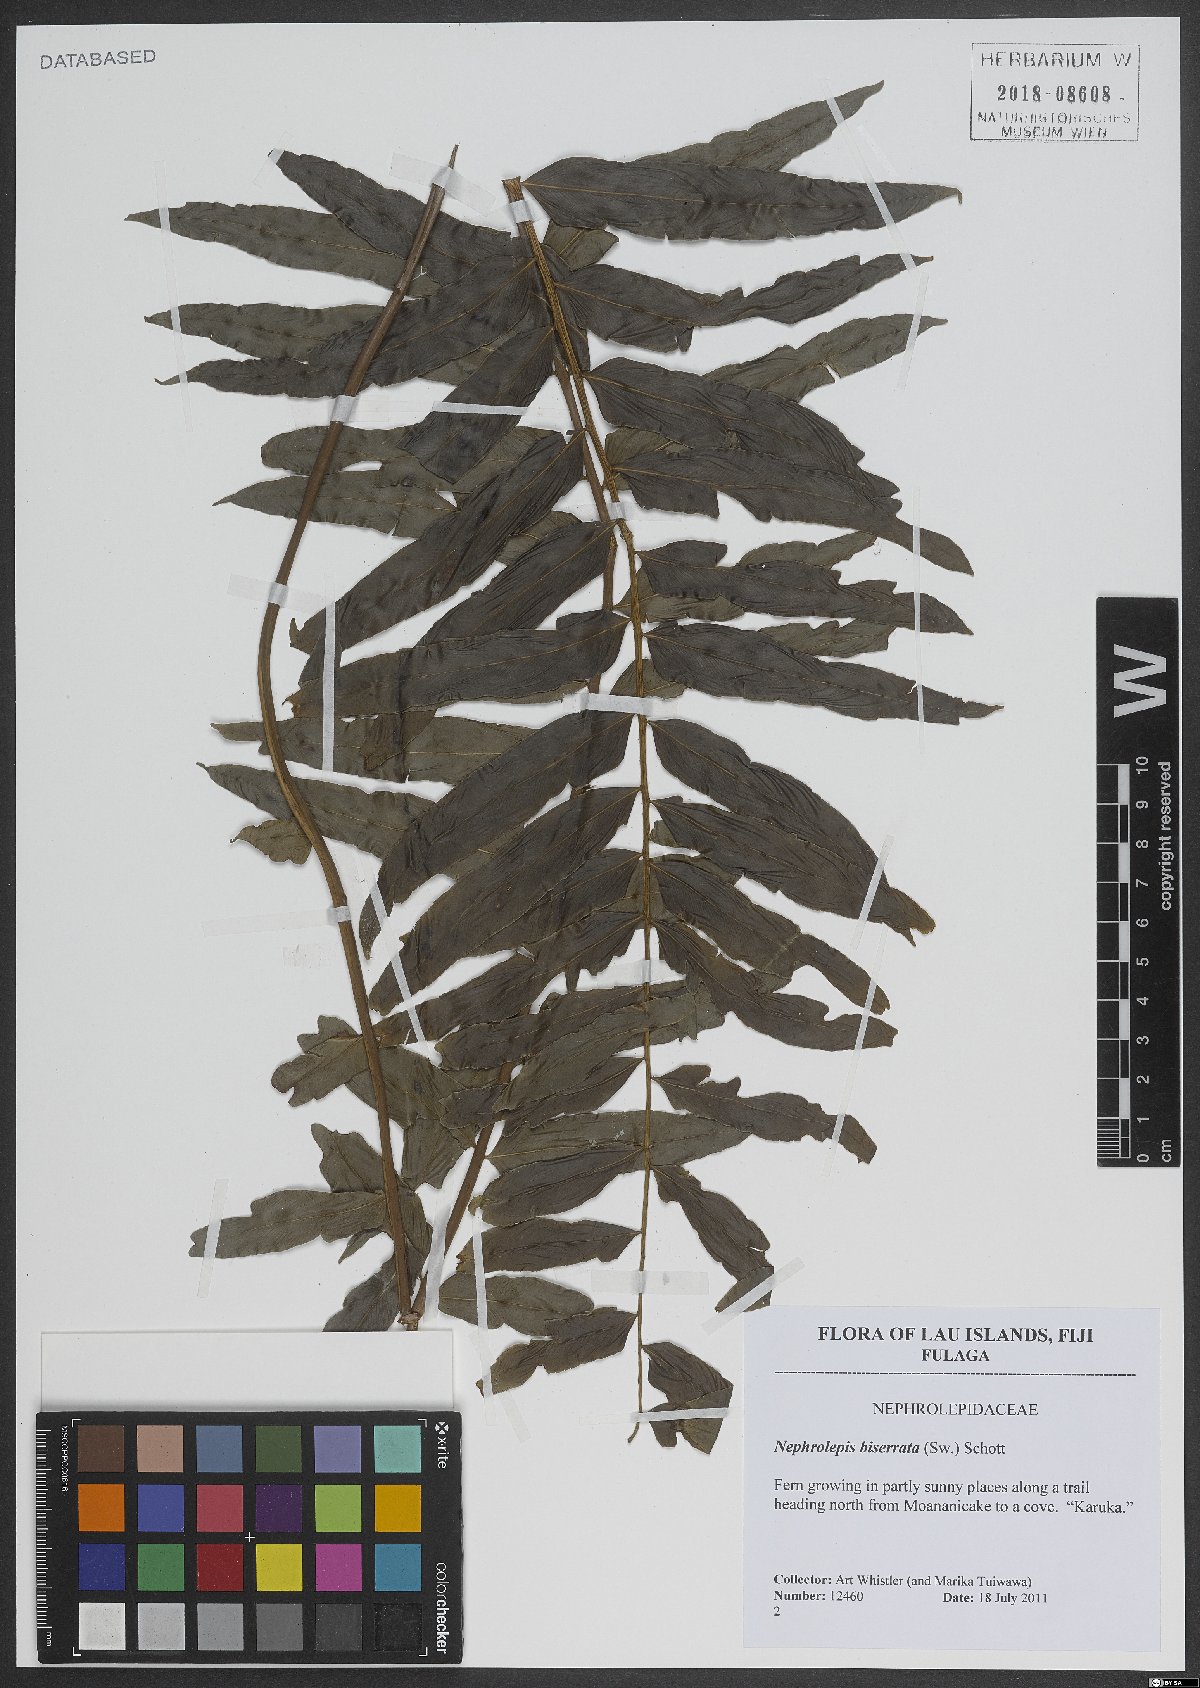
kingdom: Plantae
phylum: Tracheophyta
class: Polypodiopsida
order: Polypodiales
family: Nephrolepidaceae
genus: Nephrolepis
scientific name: Nephrolepis biserrata
